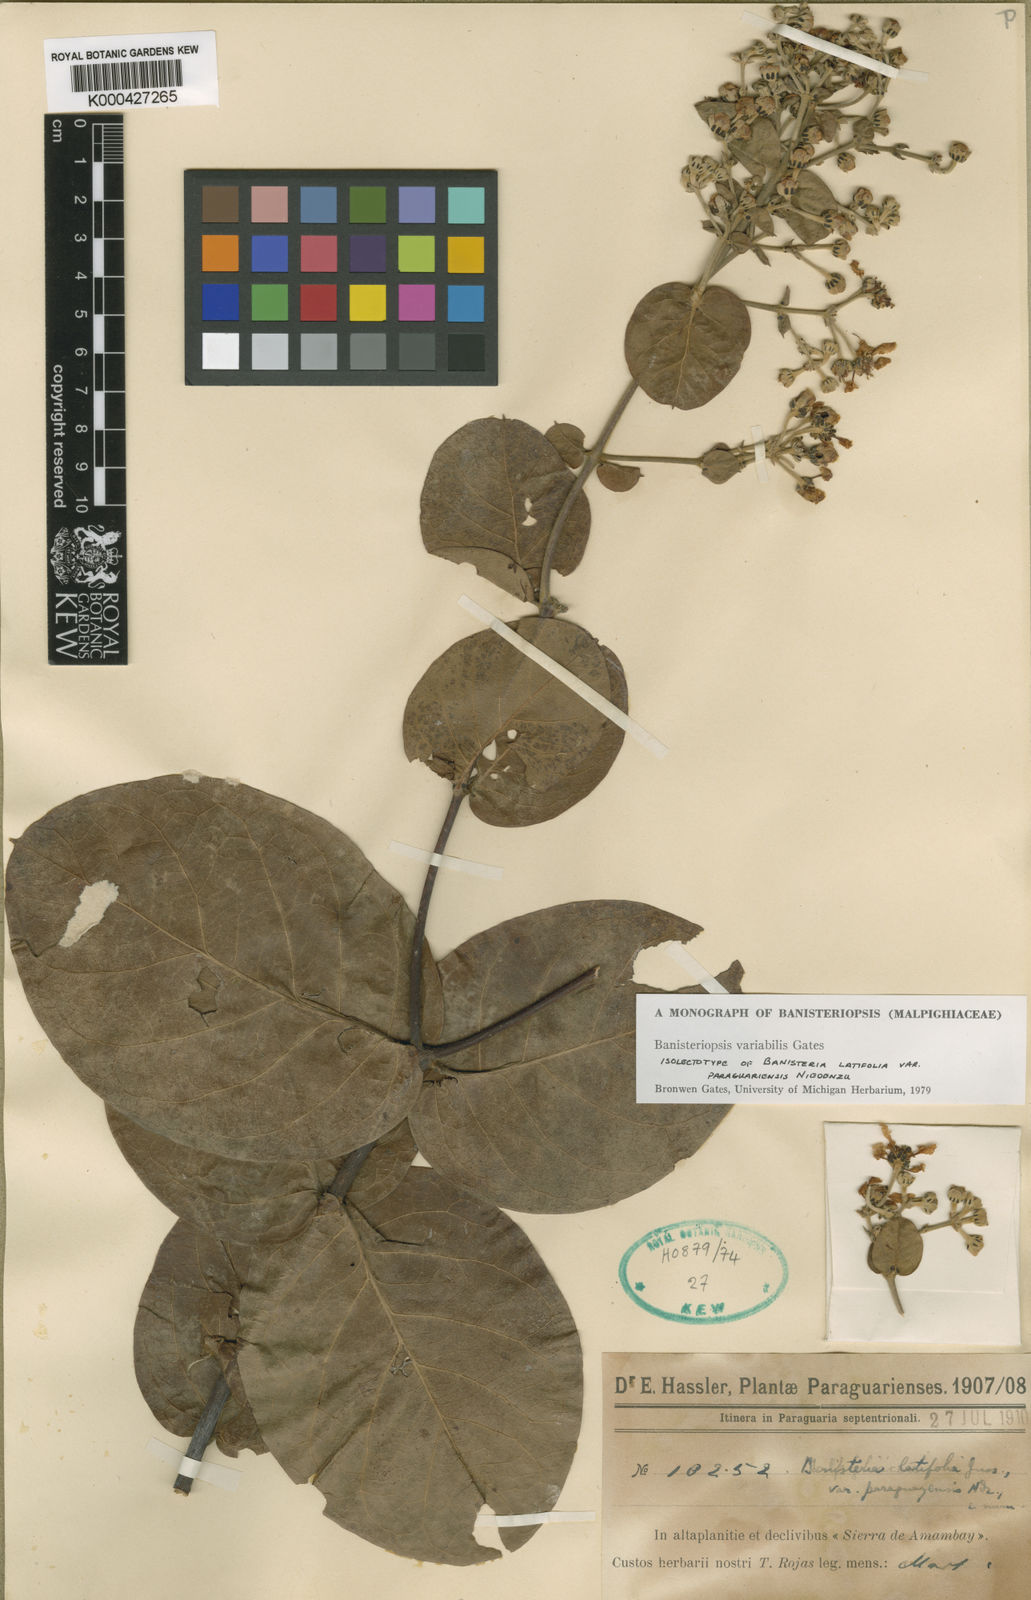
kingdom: Plantae
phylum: Tracheophyta
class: Magnoliopsida
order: Malpighiales
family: Malpighiaceae
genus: Banisteriopsis
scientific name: Banisteriopsis variabilis
